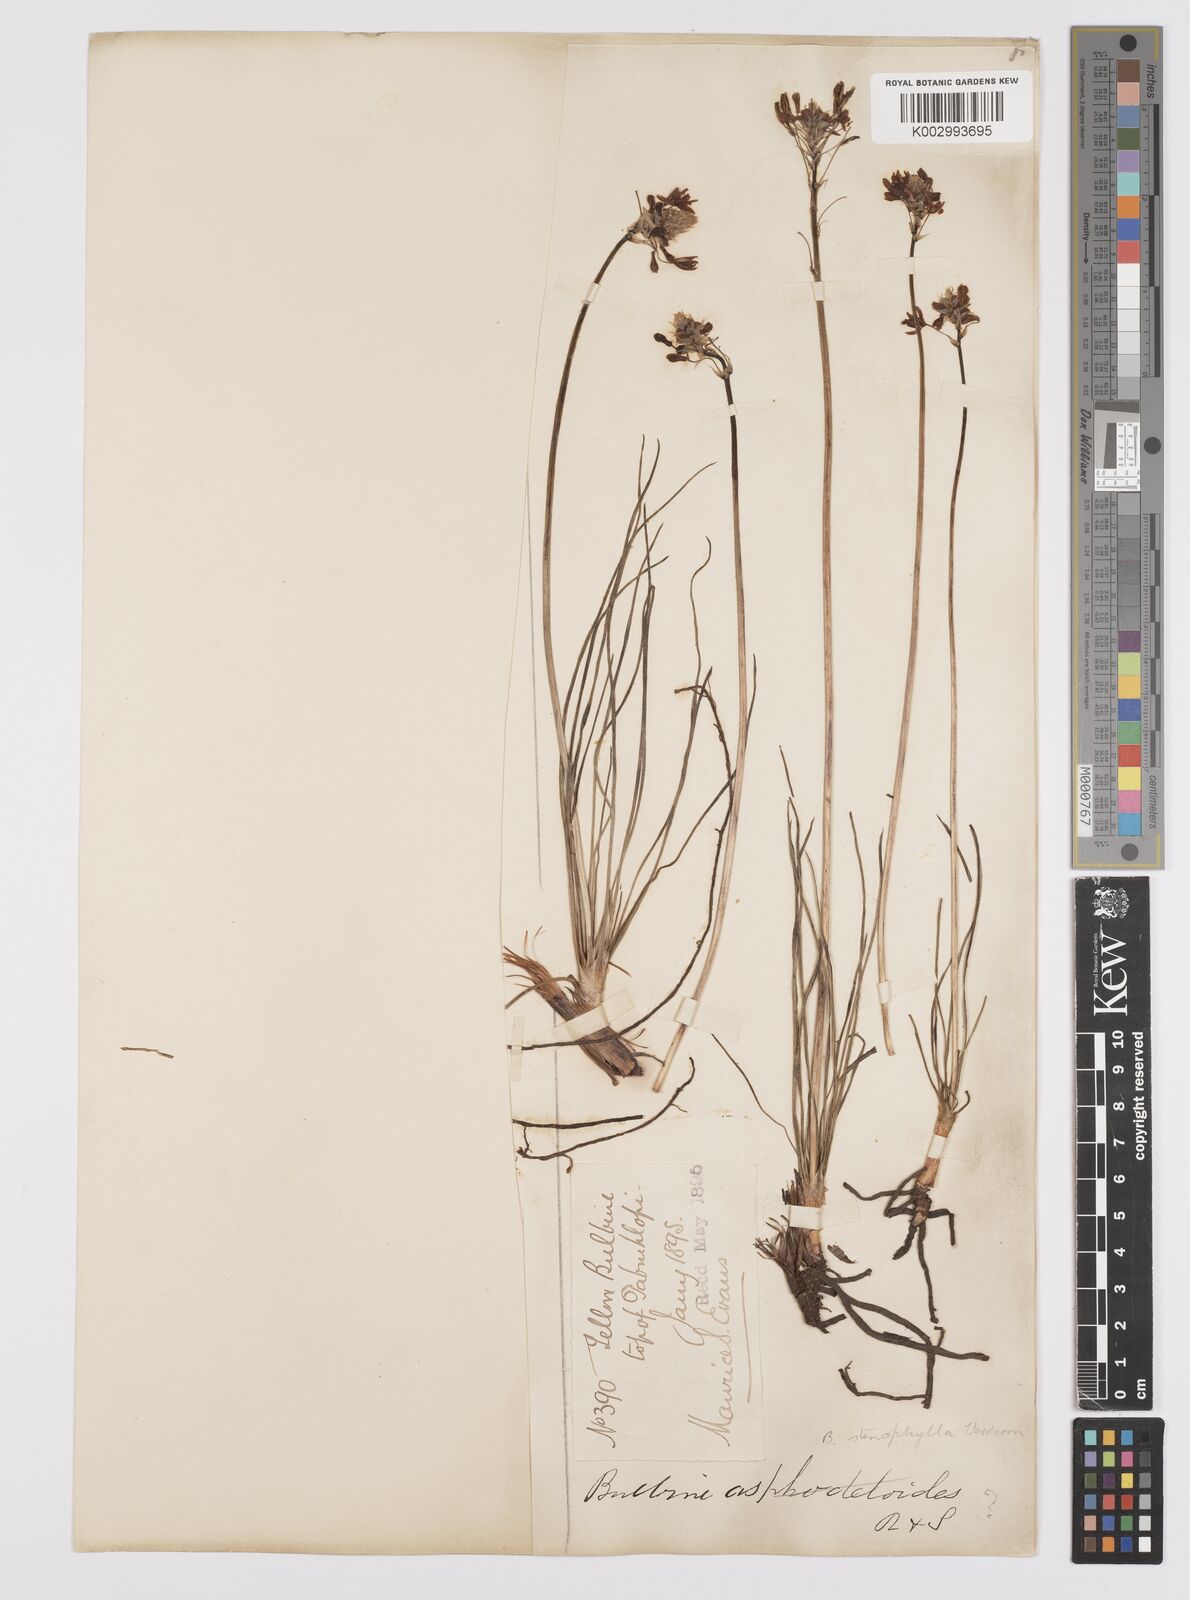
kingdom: Plantae
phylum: Tracheophyta
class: Liliopsida
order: Asparagales
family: Asphodelaceae
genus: Bulbine
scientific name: Bulbine capitata
